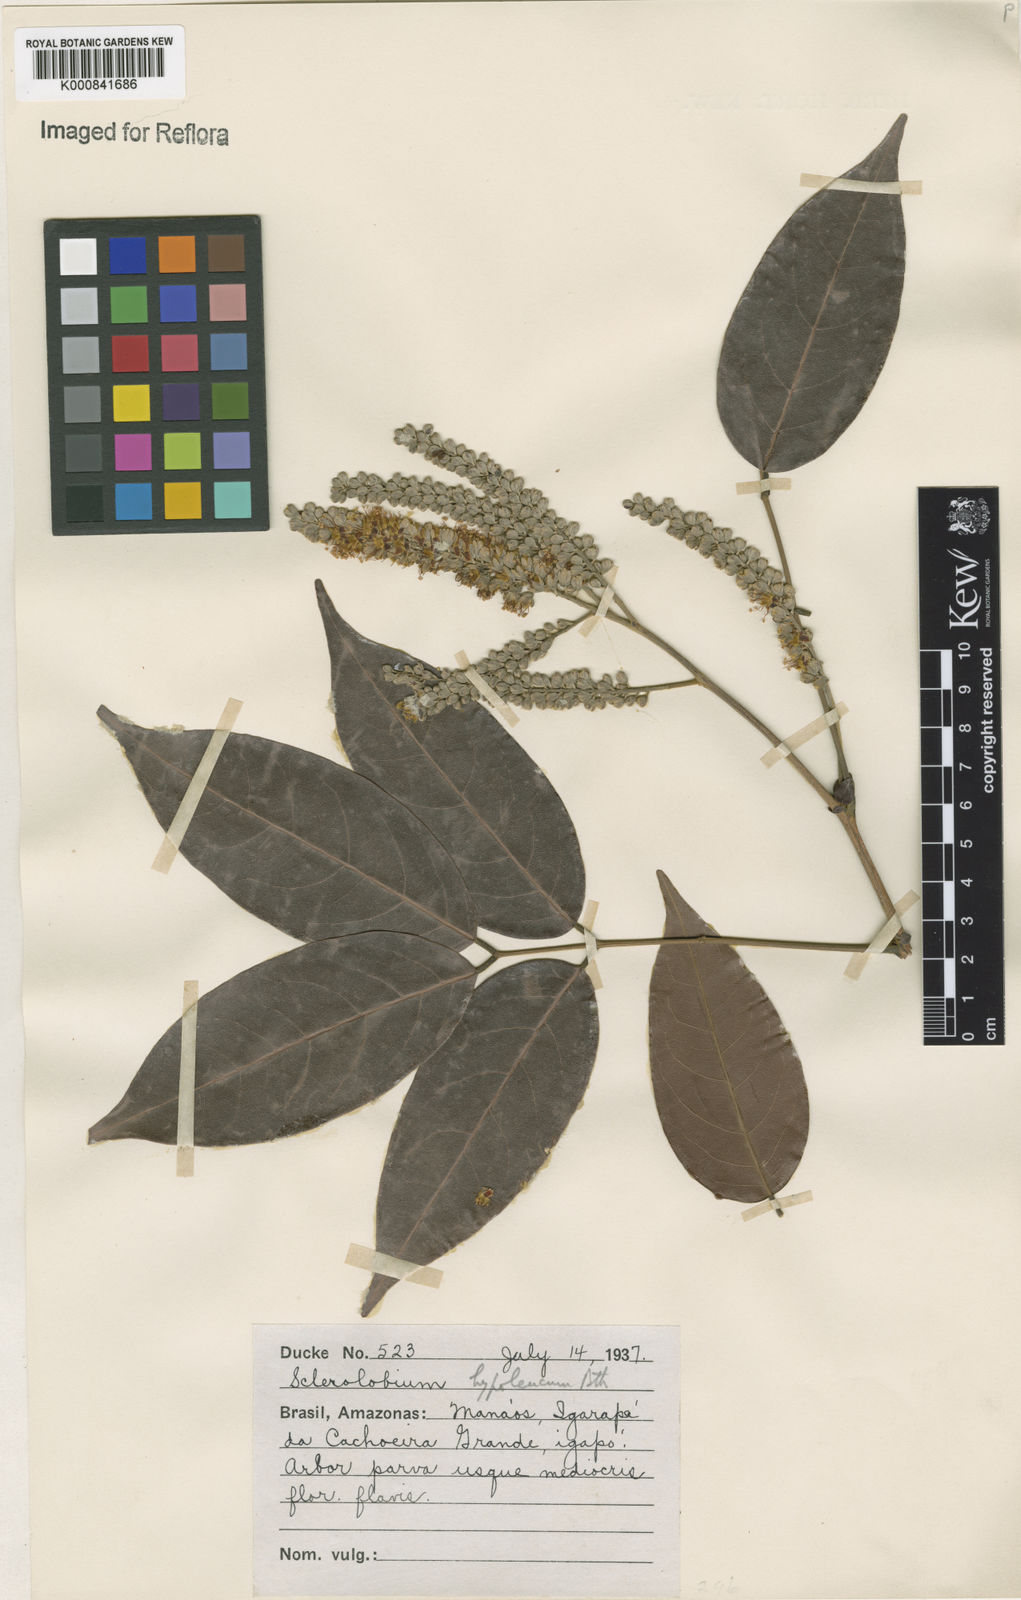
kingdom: Plantae
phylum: Tracheophyta
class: Magnoliopsida
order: Fabales
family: Fabaceae
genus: Tachigali
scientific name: Tachigali hypoleuca
